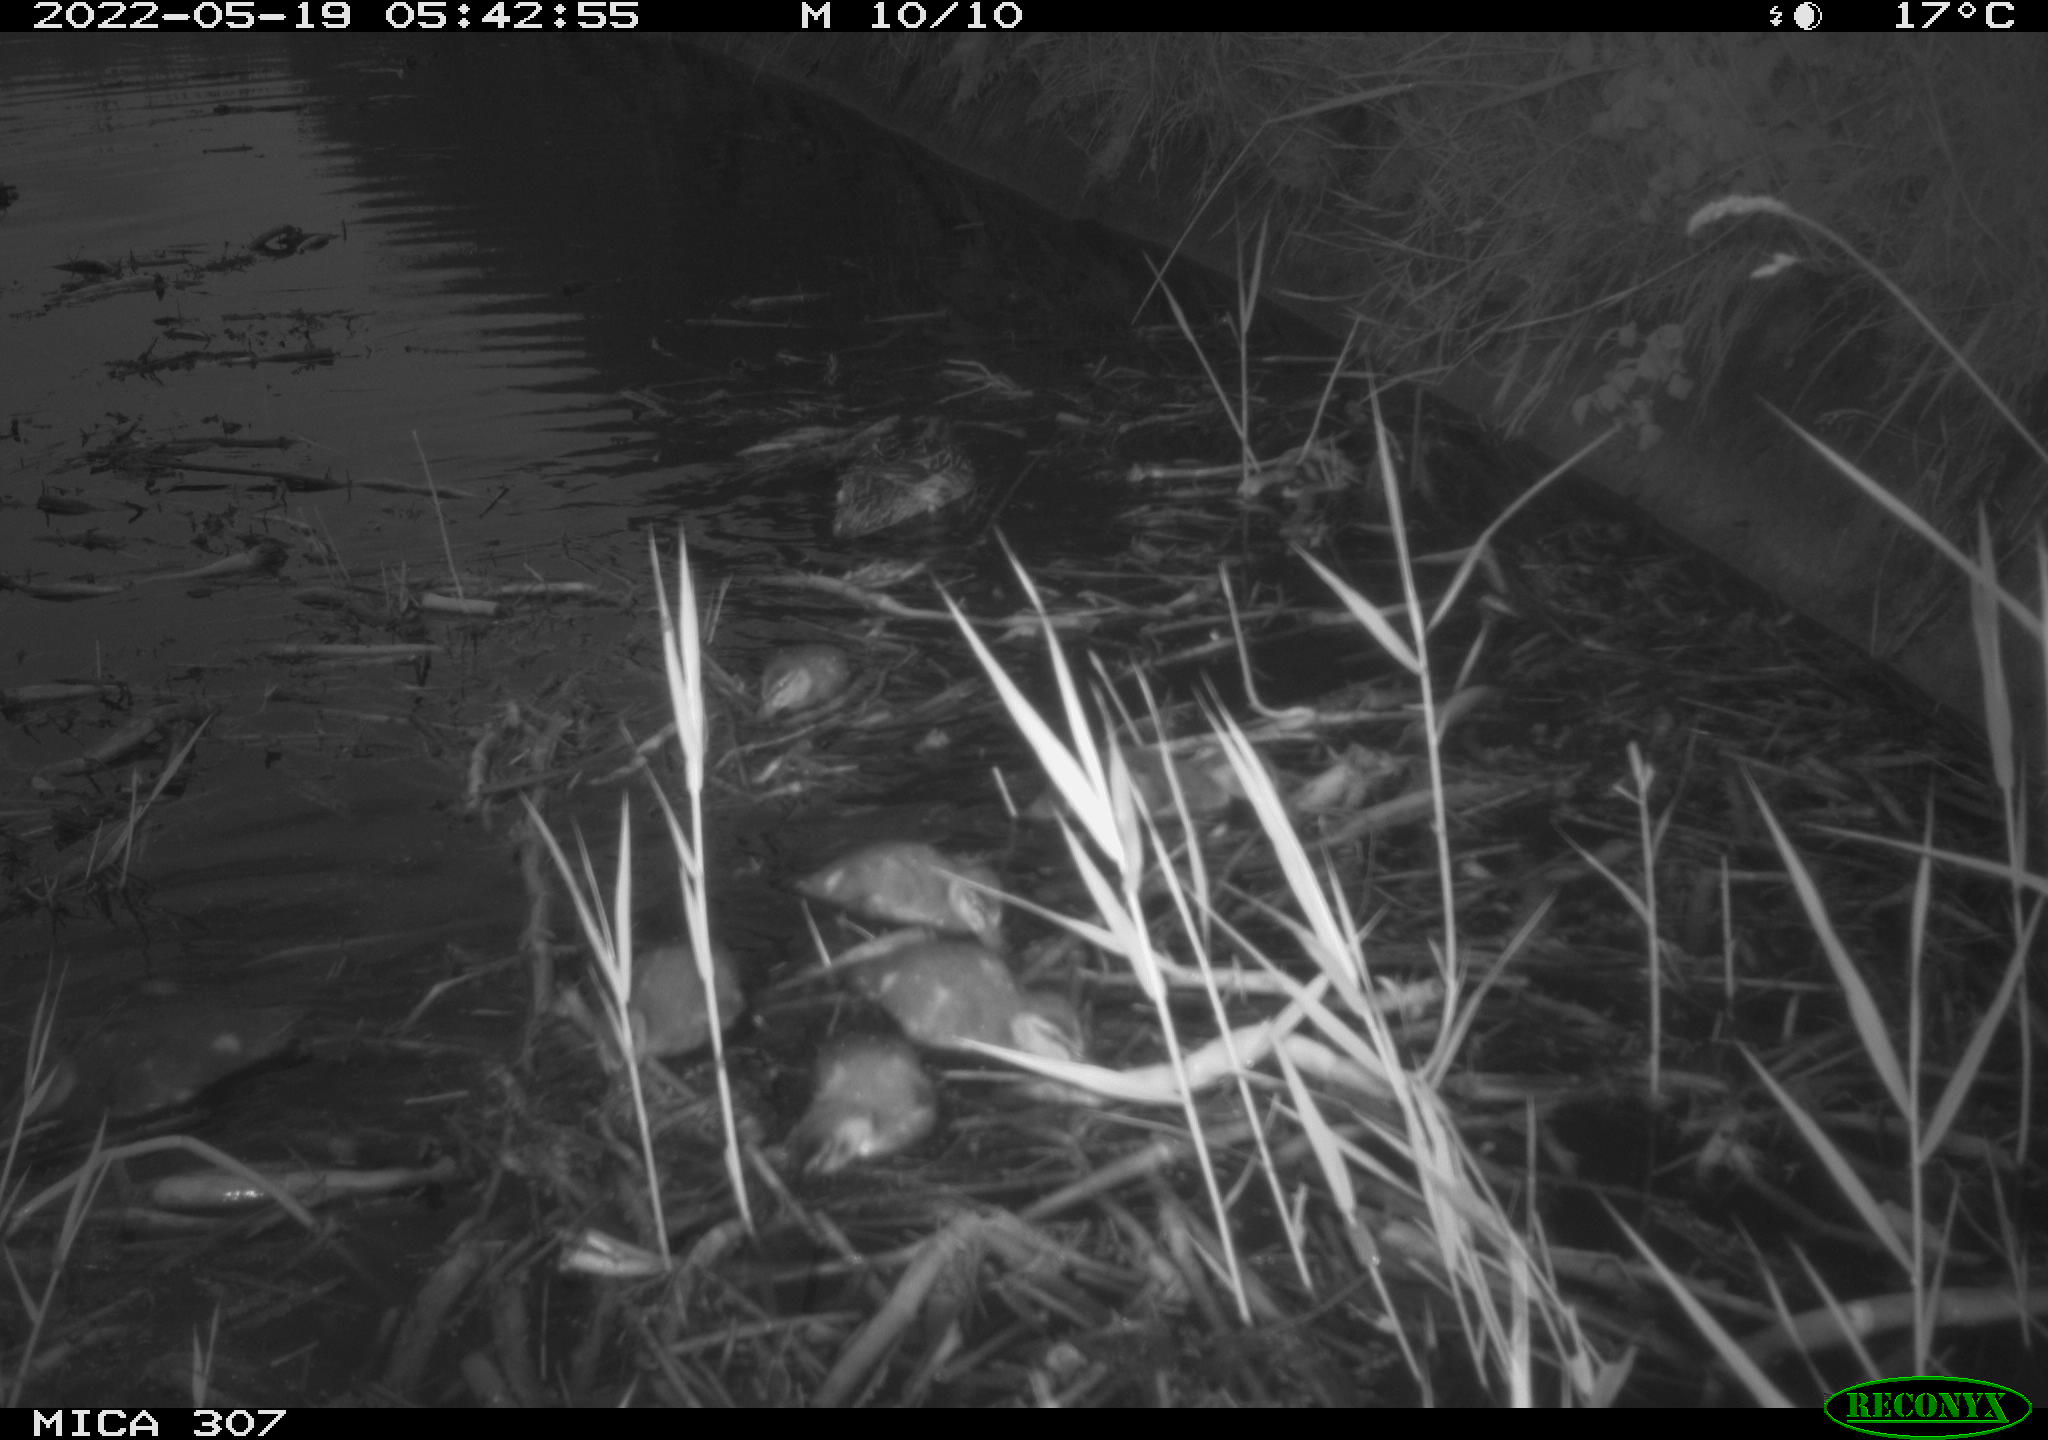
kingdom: Animalia
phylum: Chordata
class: Aves
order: Anseriformes
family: Anatidae
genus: Anas
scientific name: Anas platyrhynchos
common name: Mallard
